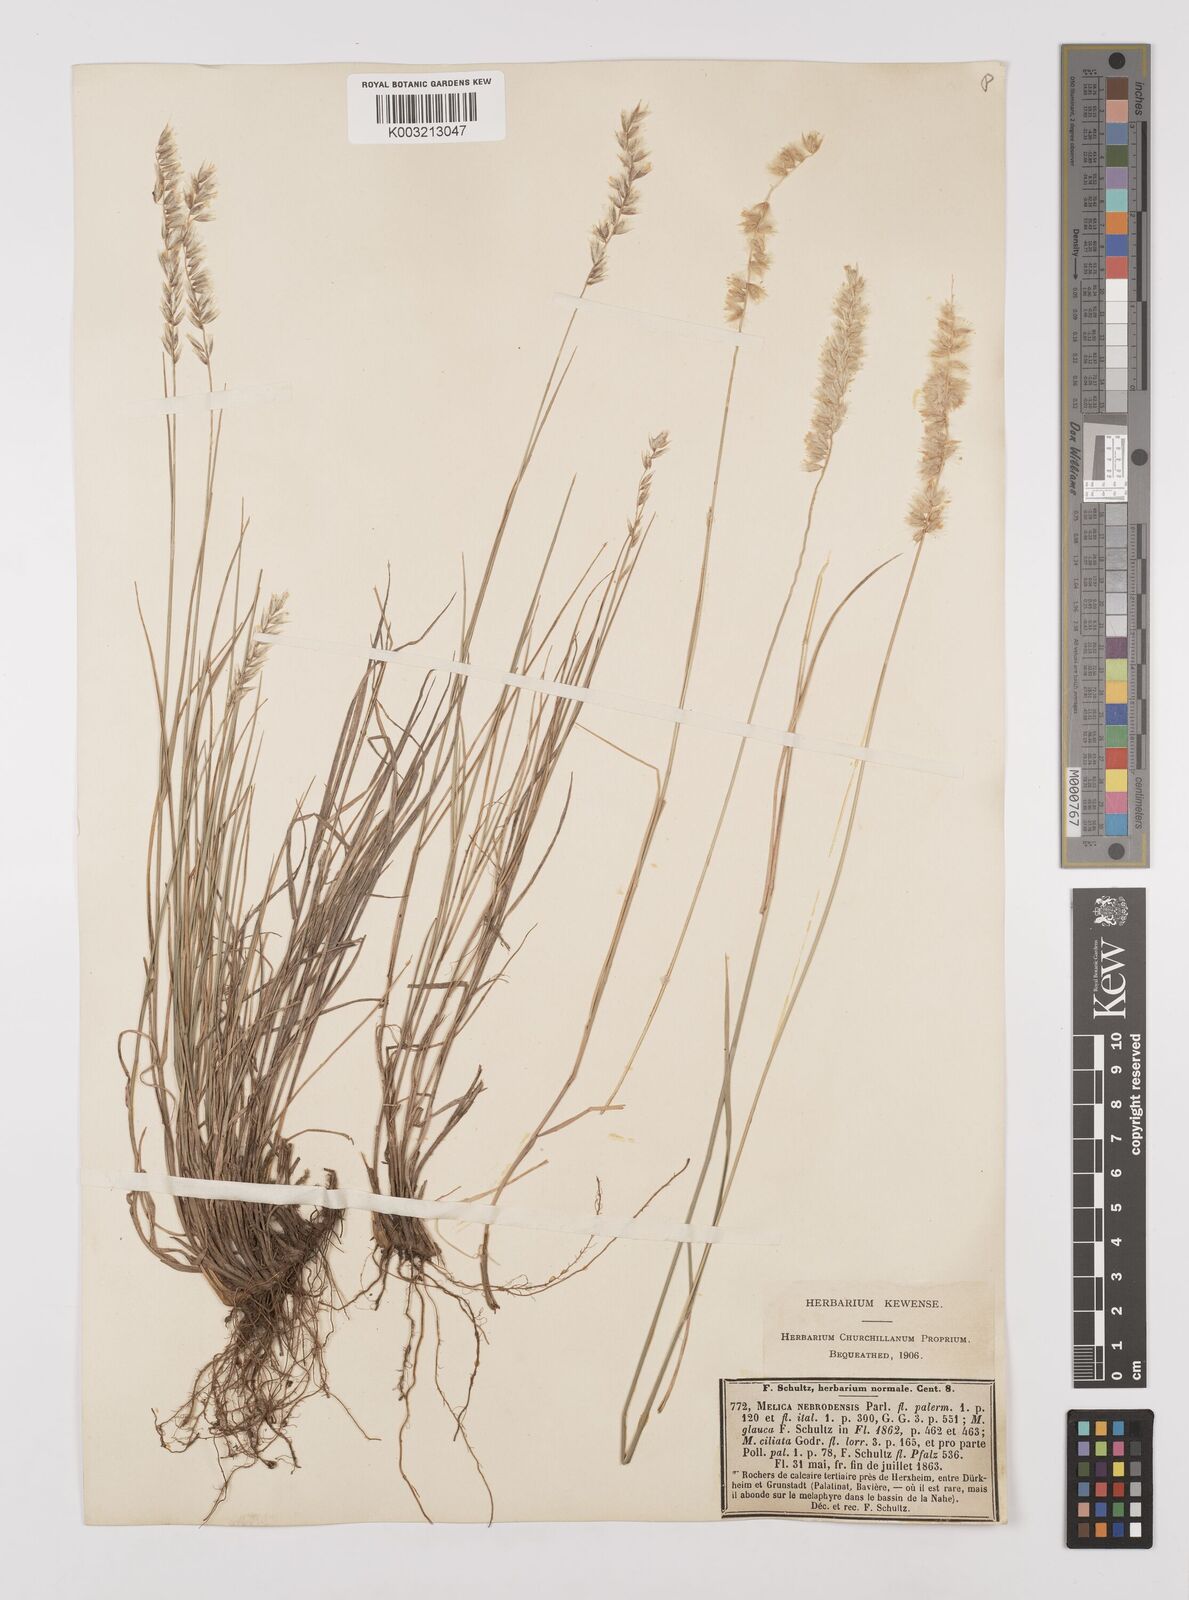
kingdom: Plantae
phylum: Tracheophyta
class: Liliopsida
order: Poales
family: Poaceae
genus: Melica
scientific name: Melica ciliata
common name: Hairy melicgrass
